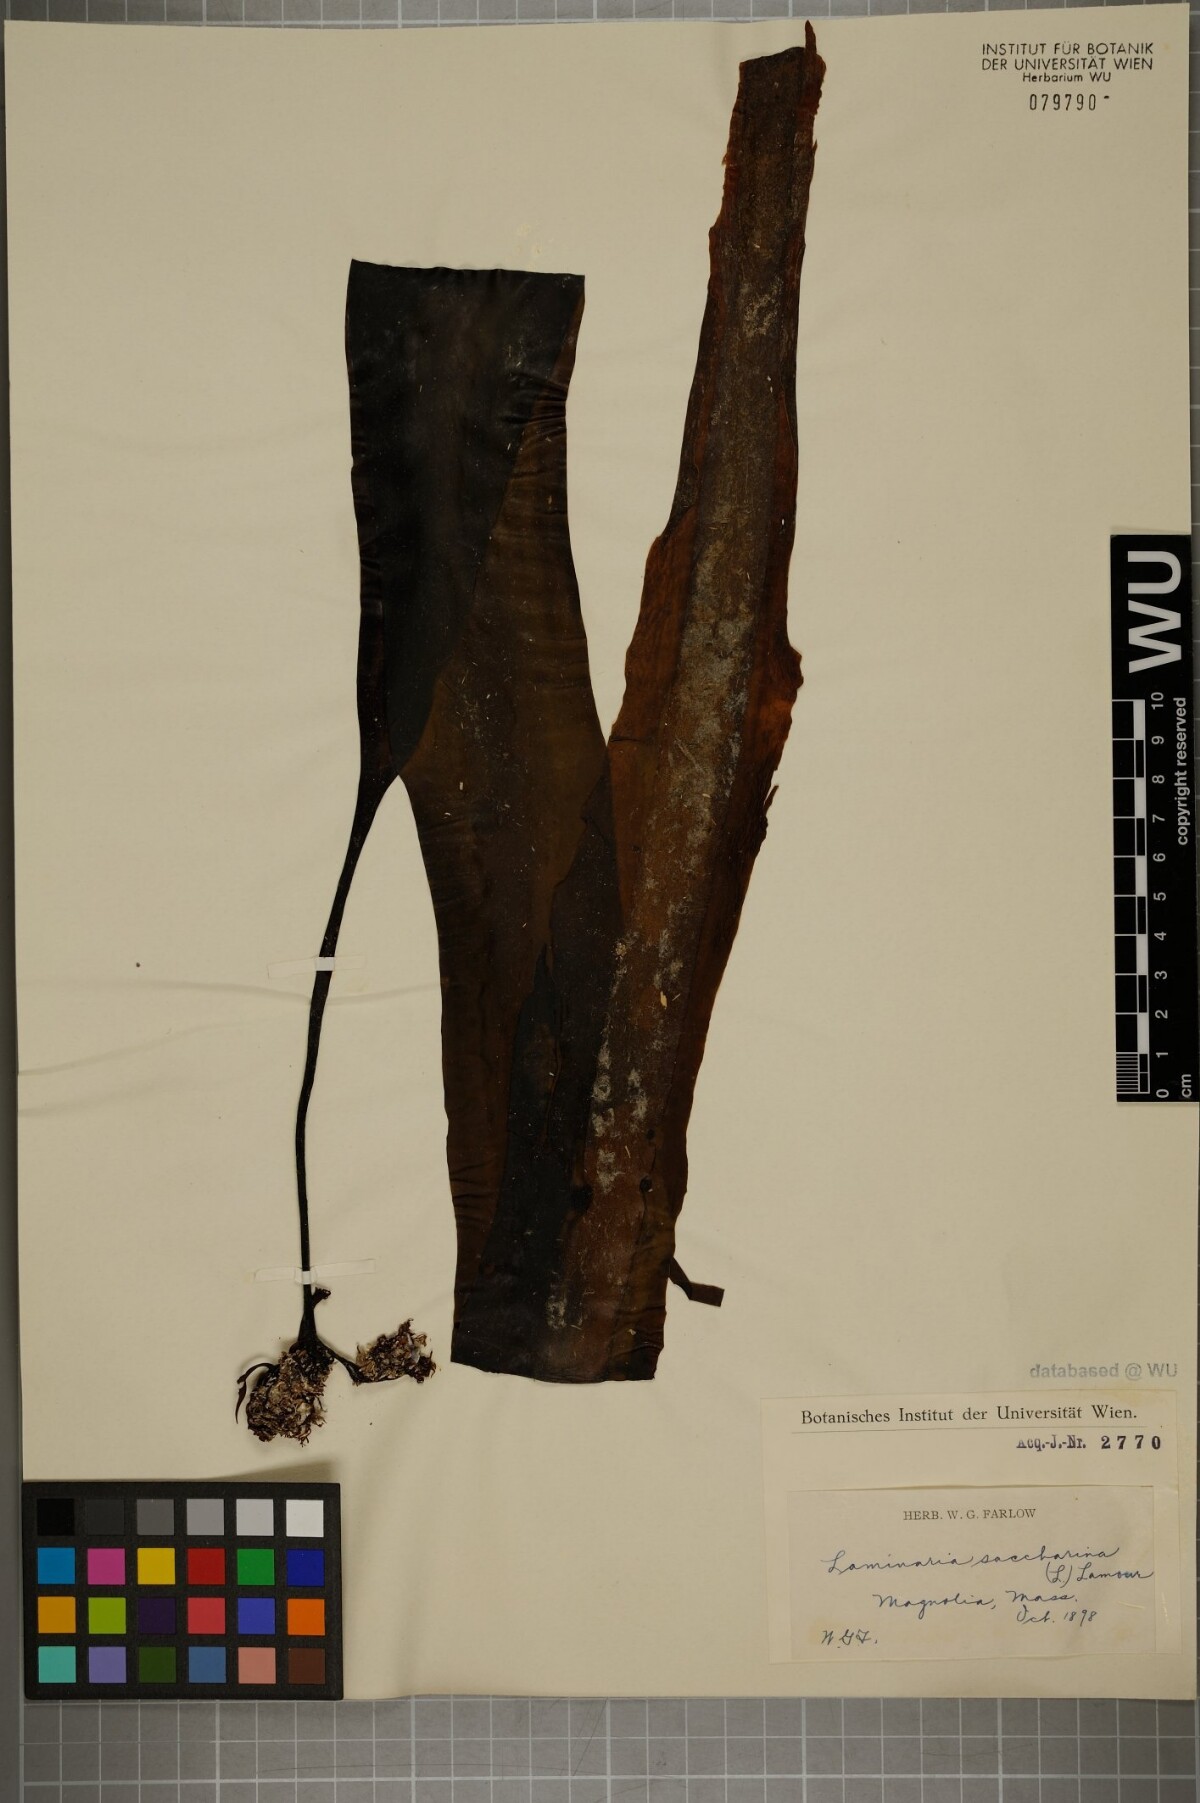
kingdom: Chromista
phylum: Ochrophyta
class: Phaeophyceae
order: Laminariales
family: Laminariaceae
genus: Saccharina
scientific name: Saccharina latissima
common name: Poor man's weather glass
